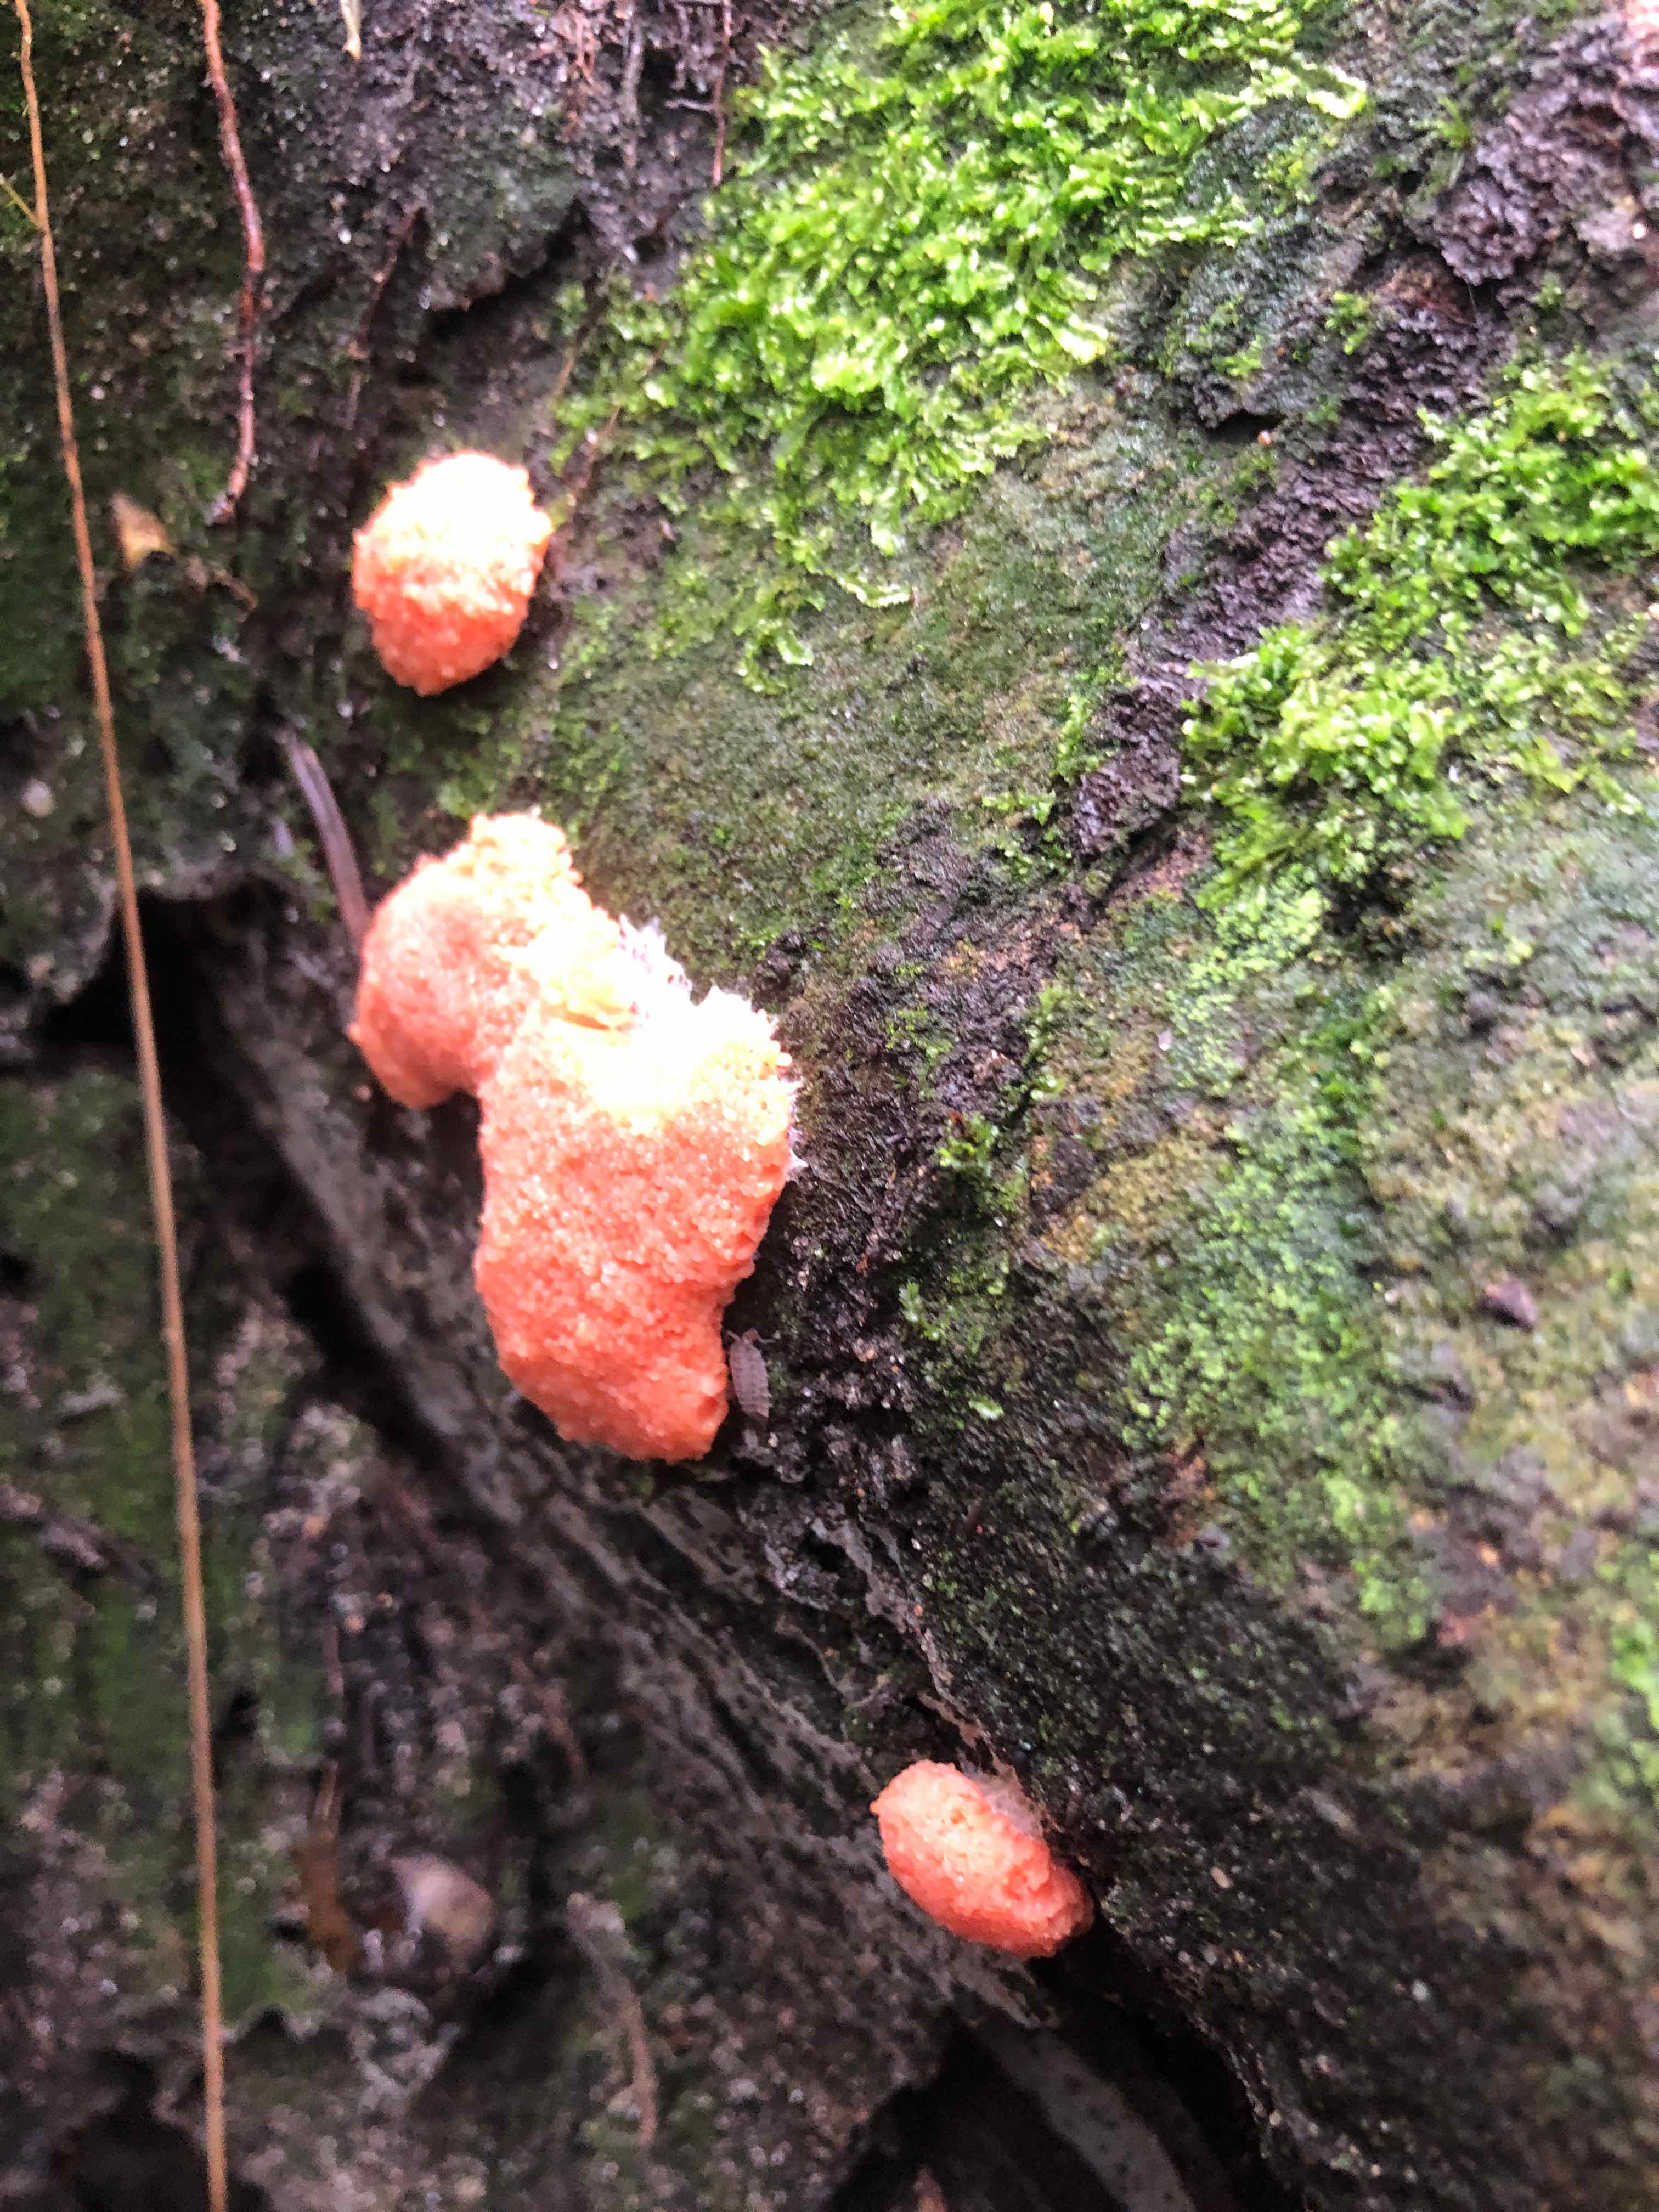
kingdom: Protozoa
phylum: Mycetozoa
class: Myxomycetes
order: Cribrariales
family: Tubiferaceae
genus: Tubifera
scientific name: Tubifera ferruginosa
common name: kanel-støvrør
